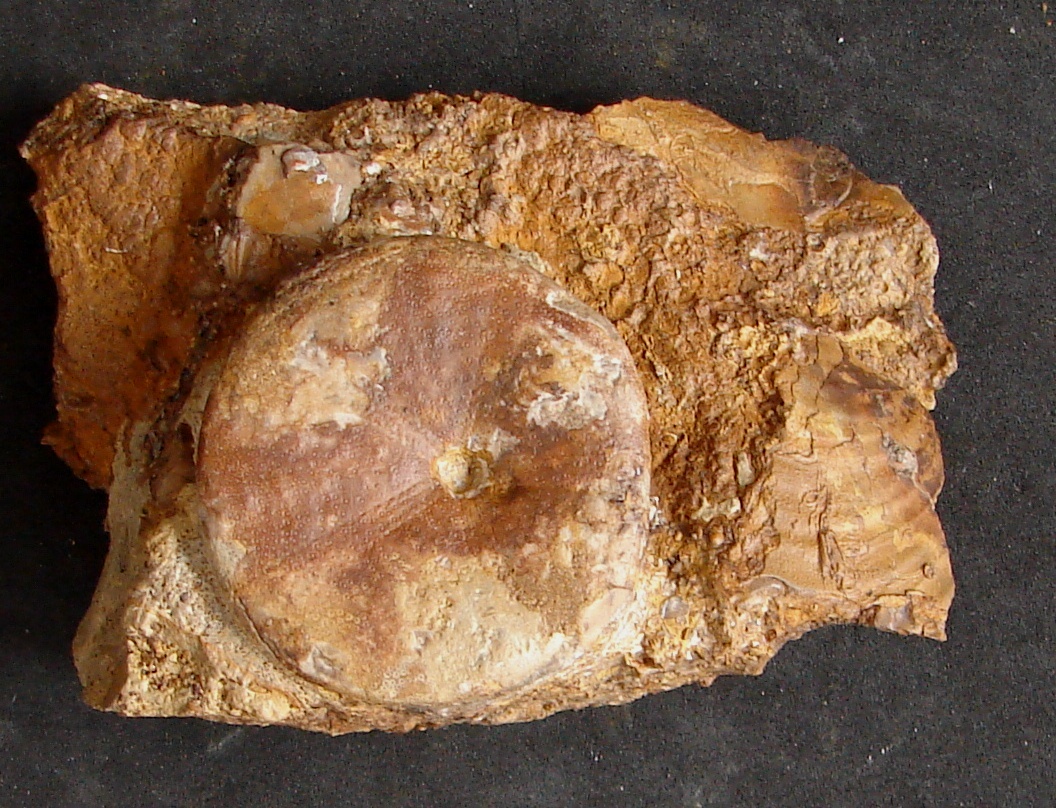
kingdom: Animalia
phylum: Echinodermata
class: Echinoidea
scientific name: Echinoidea
